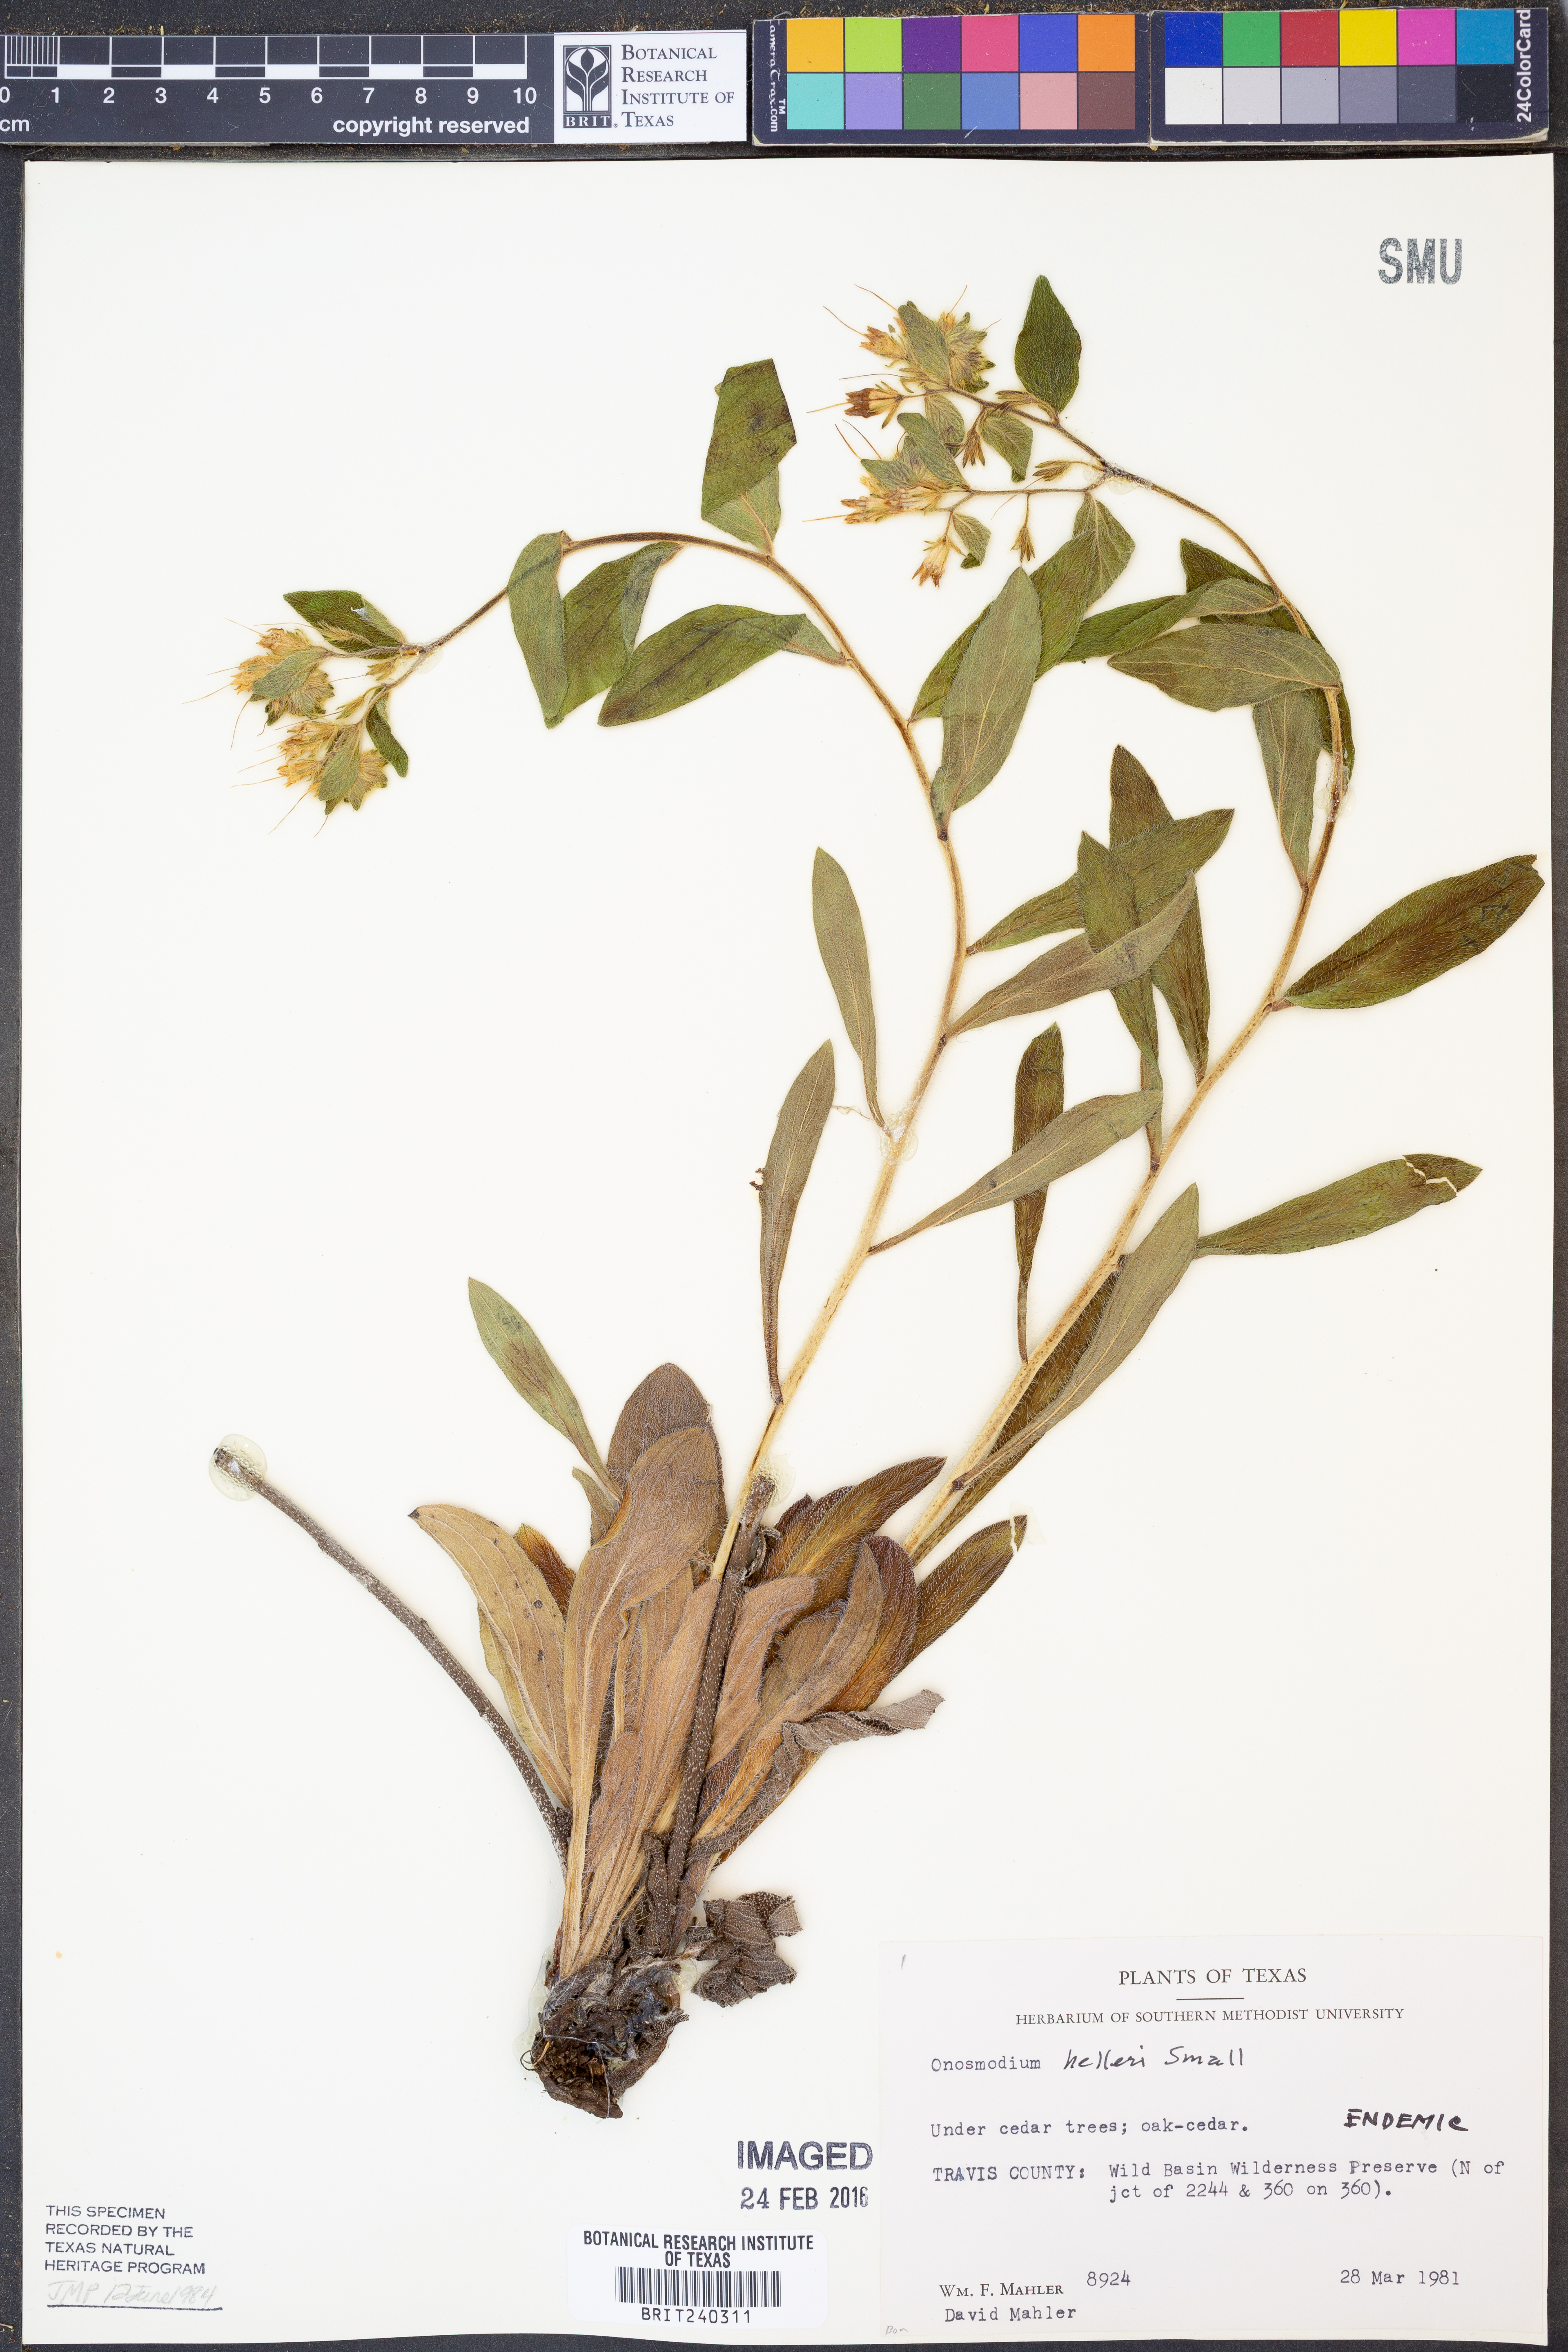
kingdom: Plantae
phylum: Tracheophyta
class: Magnoliopsida
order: Boraginales
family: Boraginaceae
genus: Lithospermum
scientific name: Lithospermum helleri
